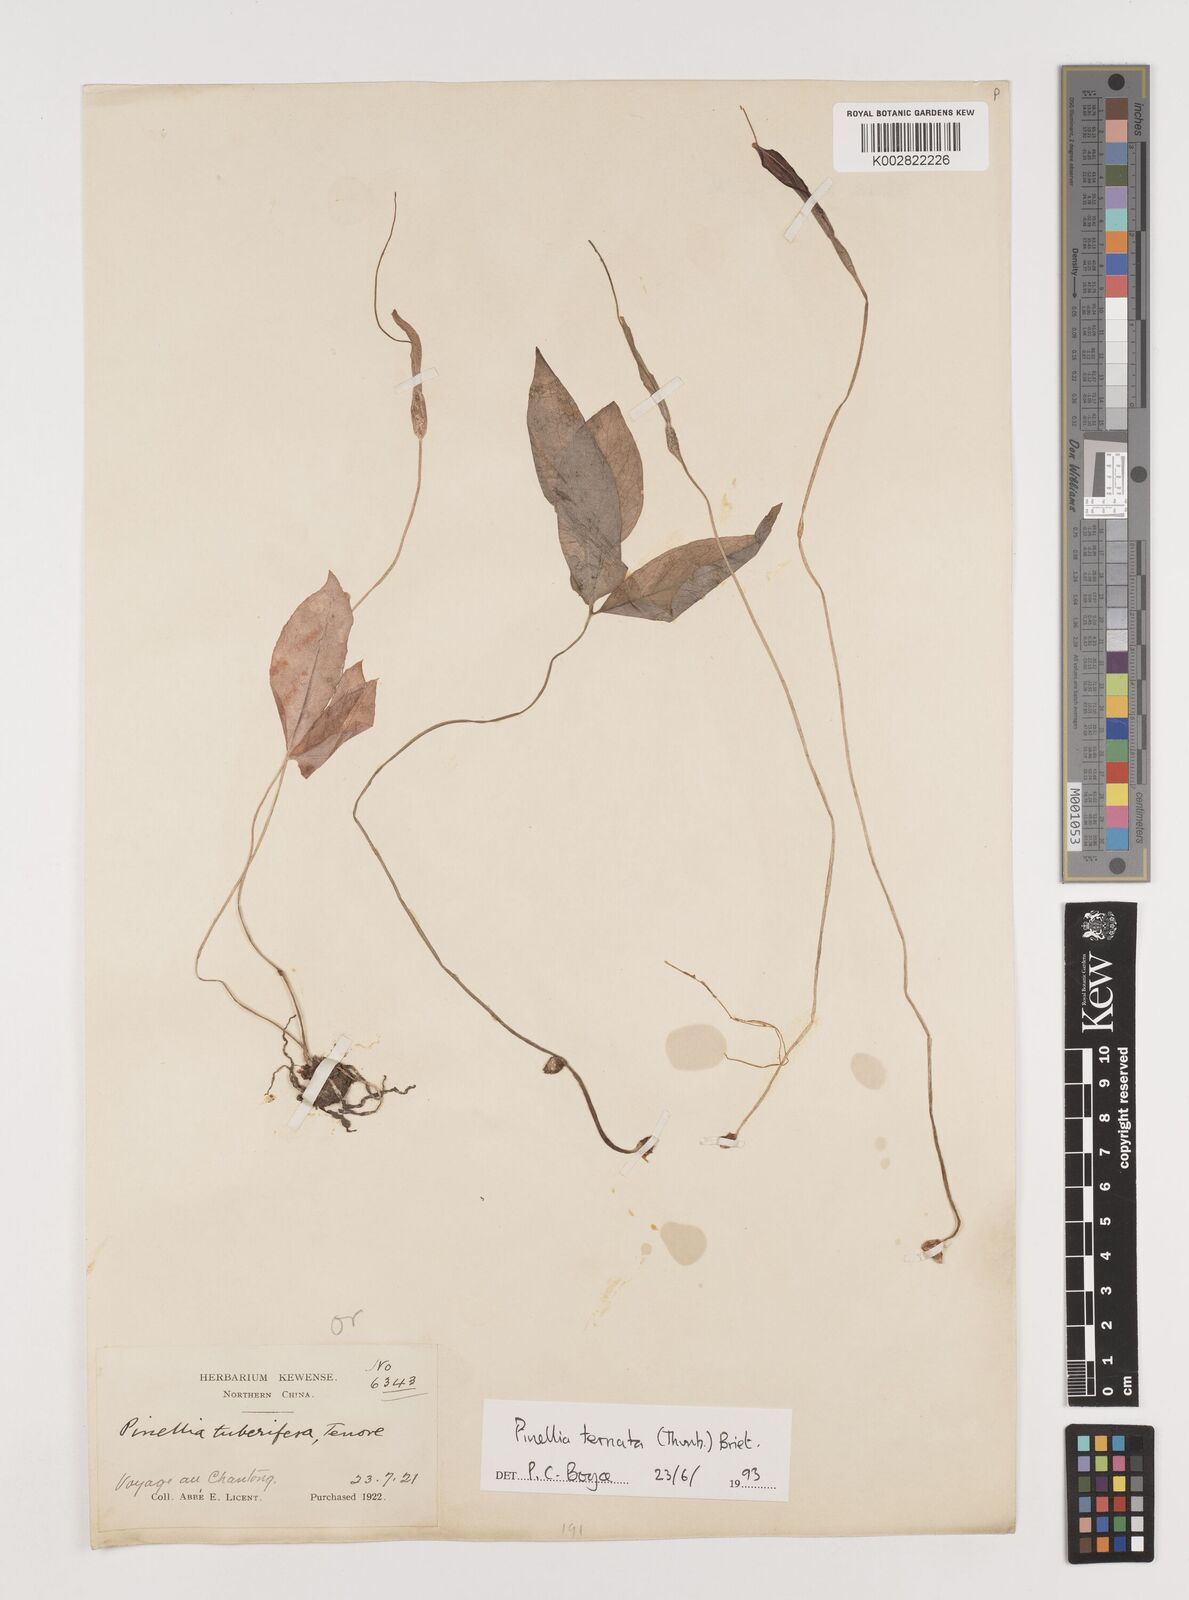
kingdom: Plantae
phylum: Tracheophyta
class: Liliopsida
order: Alismatales
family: Araceae
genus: Pinellia
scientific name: Pinellia ternata
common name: Pinellia
